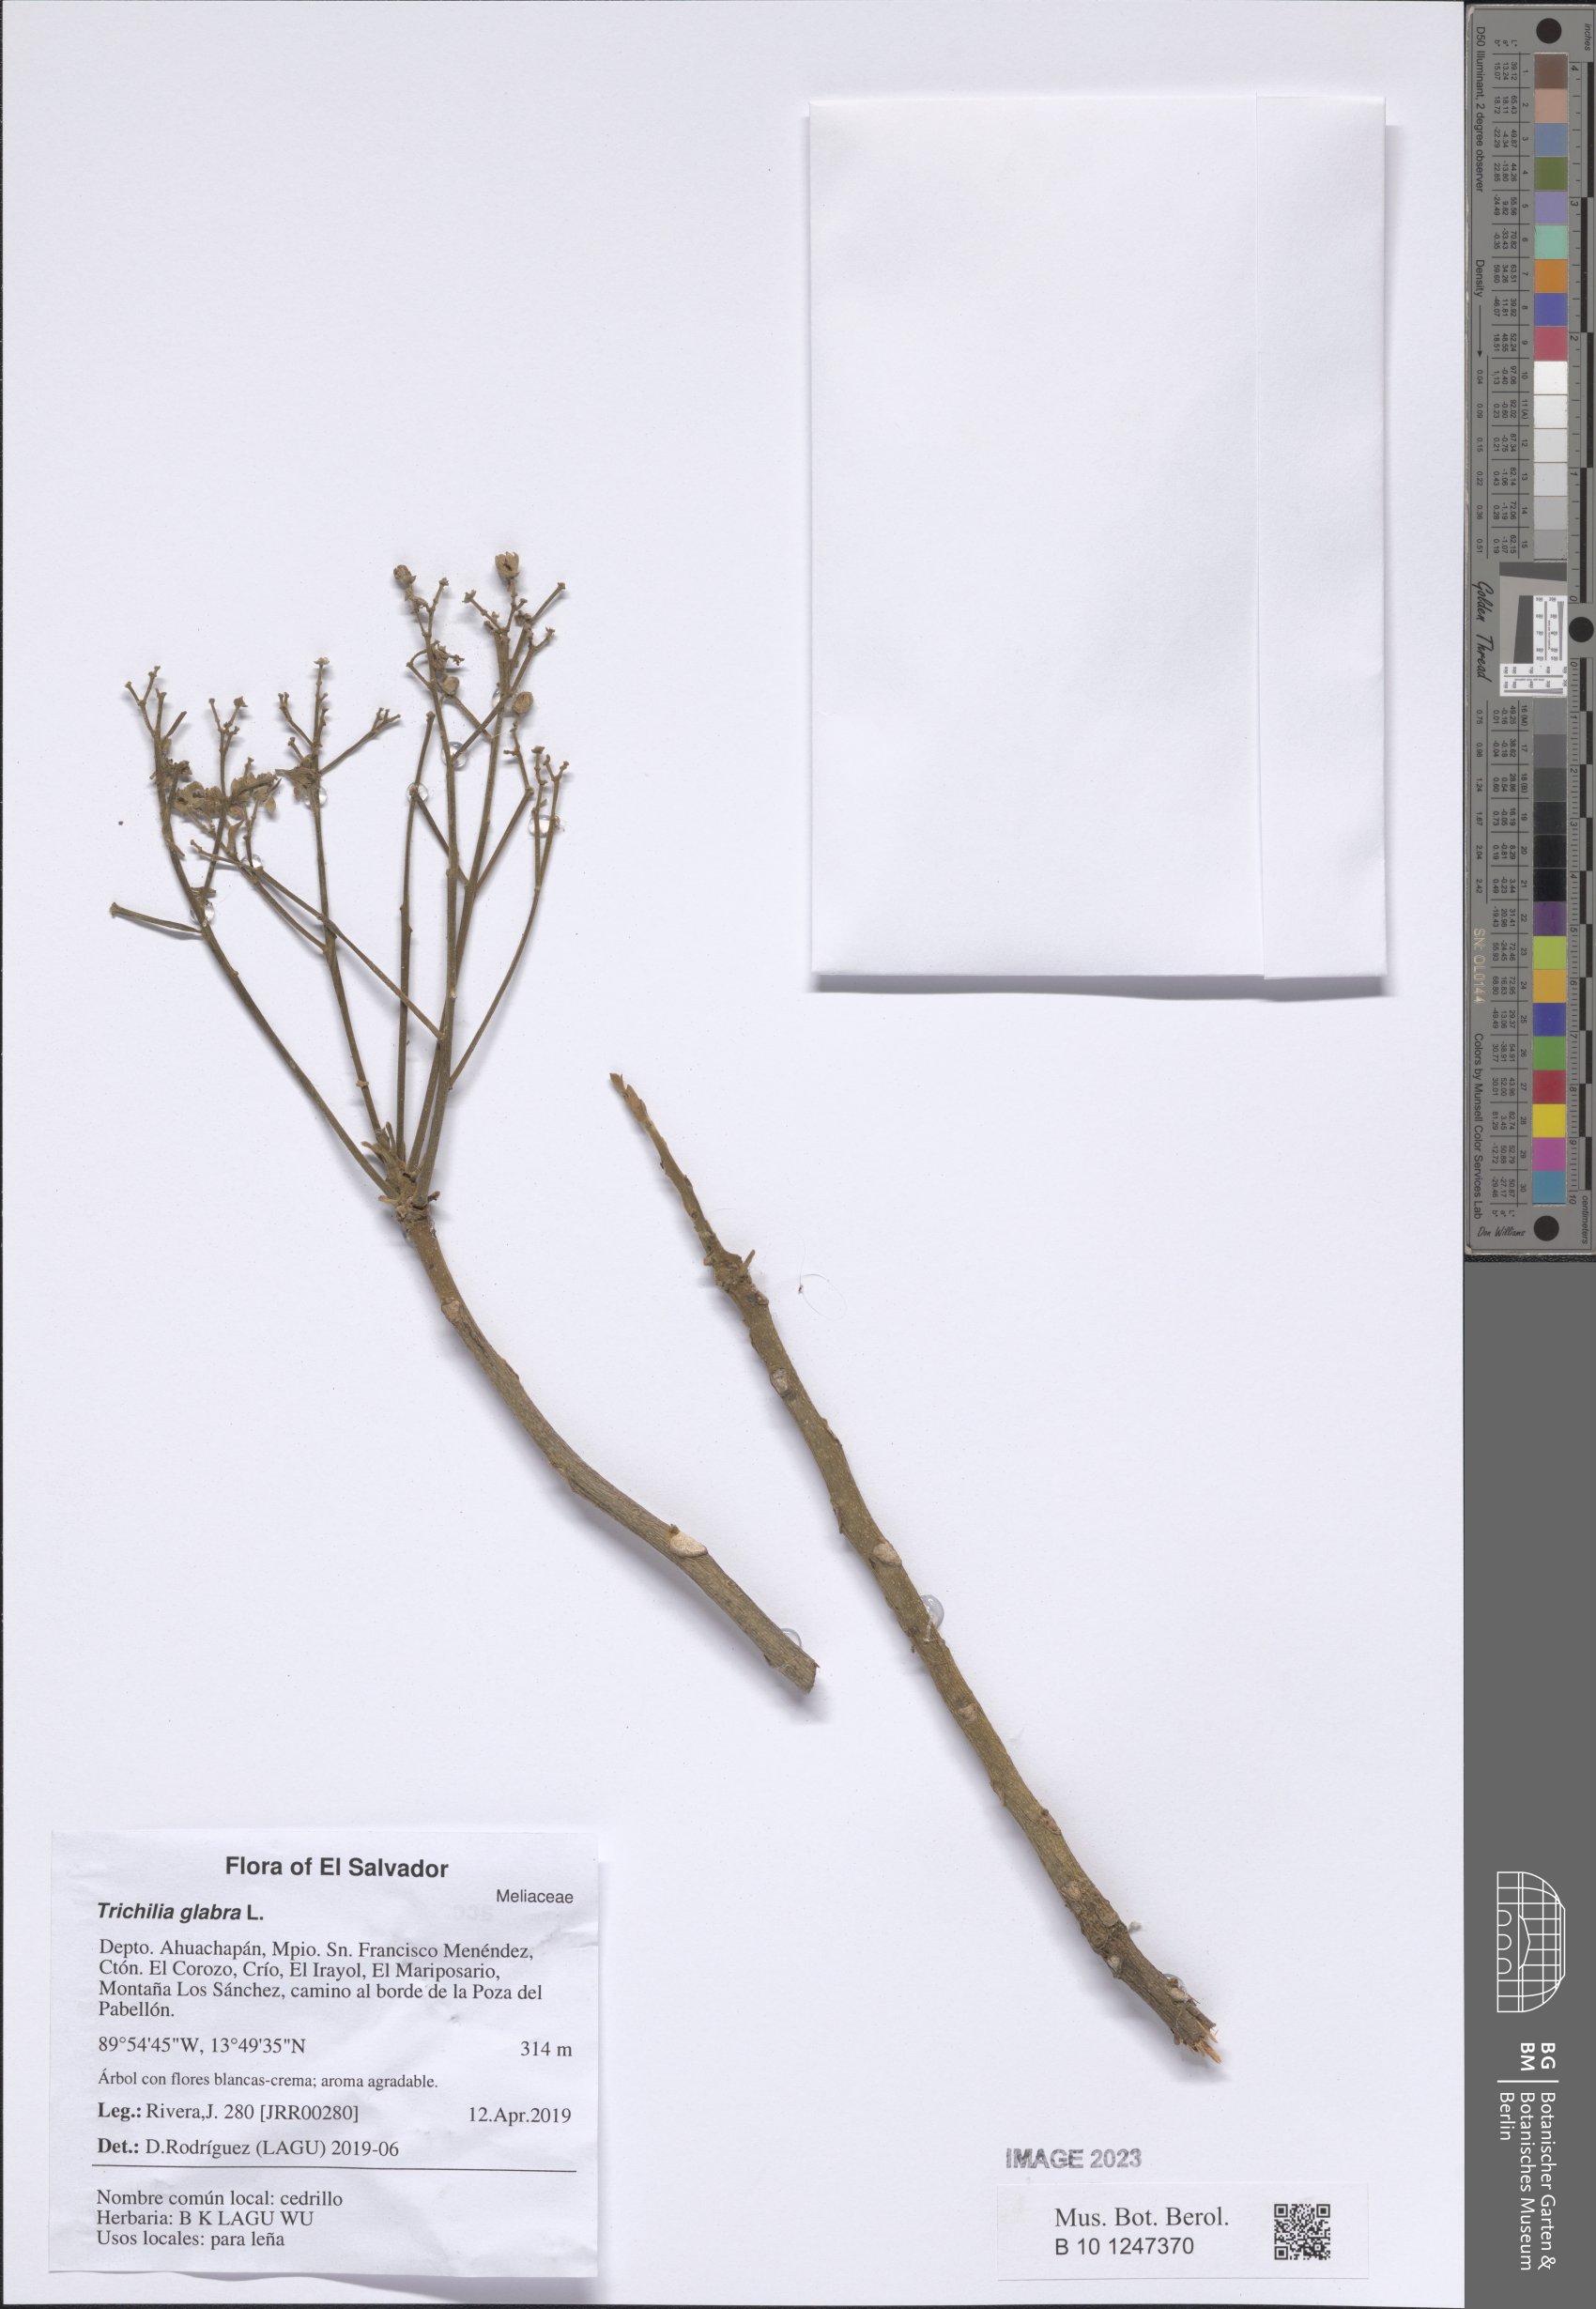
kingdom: Plantae
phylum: Tracheophyta
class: Magnoliopsida
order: Sapindales
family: Meliaceae
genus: Trichilia
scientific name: Trichilia glabra
